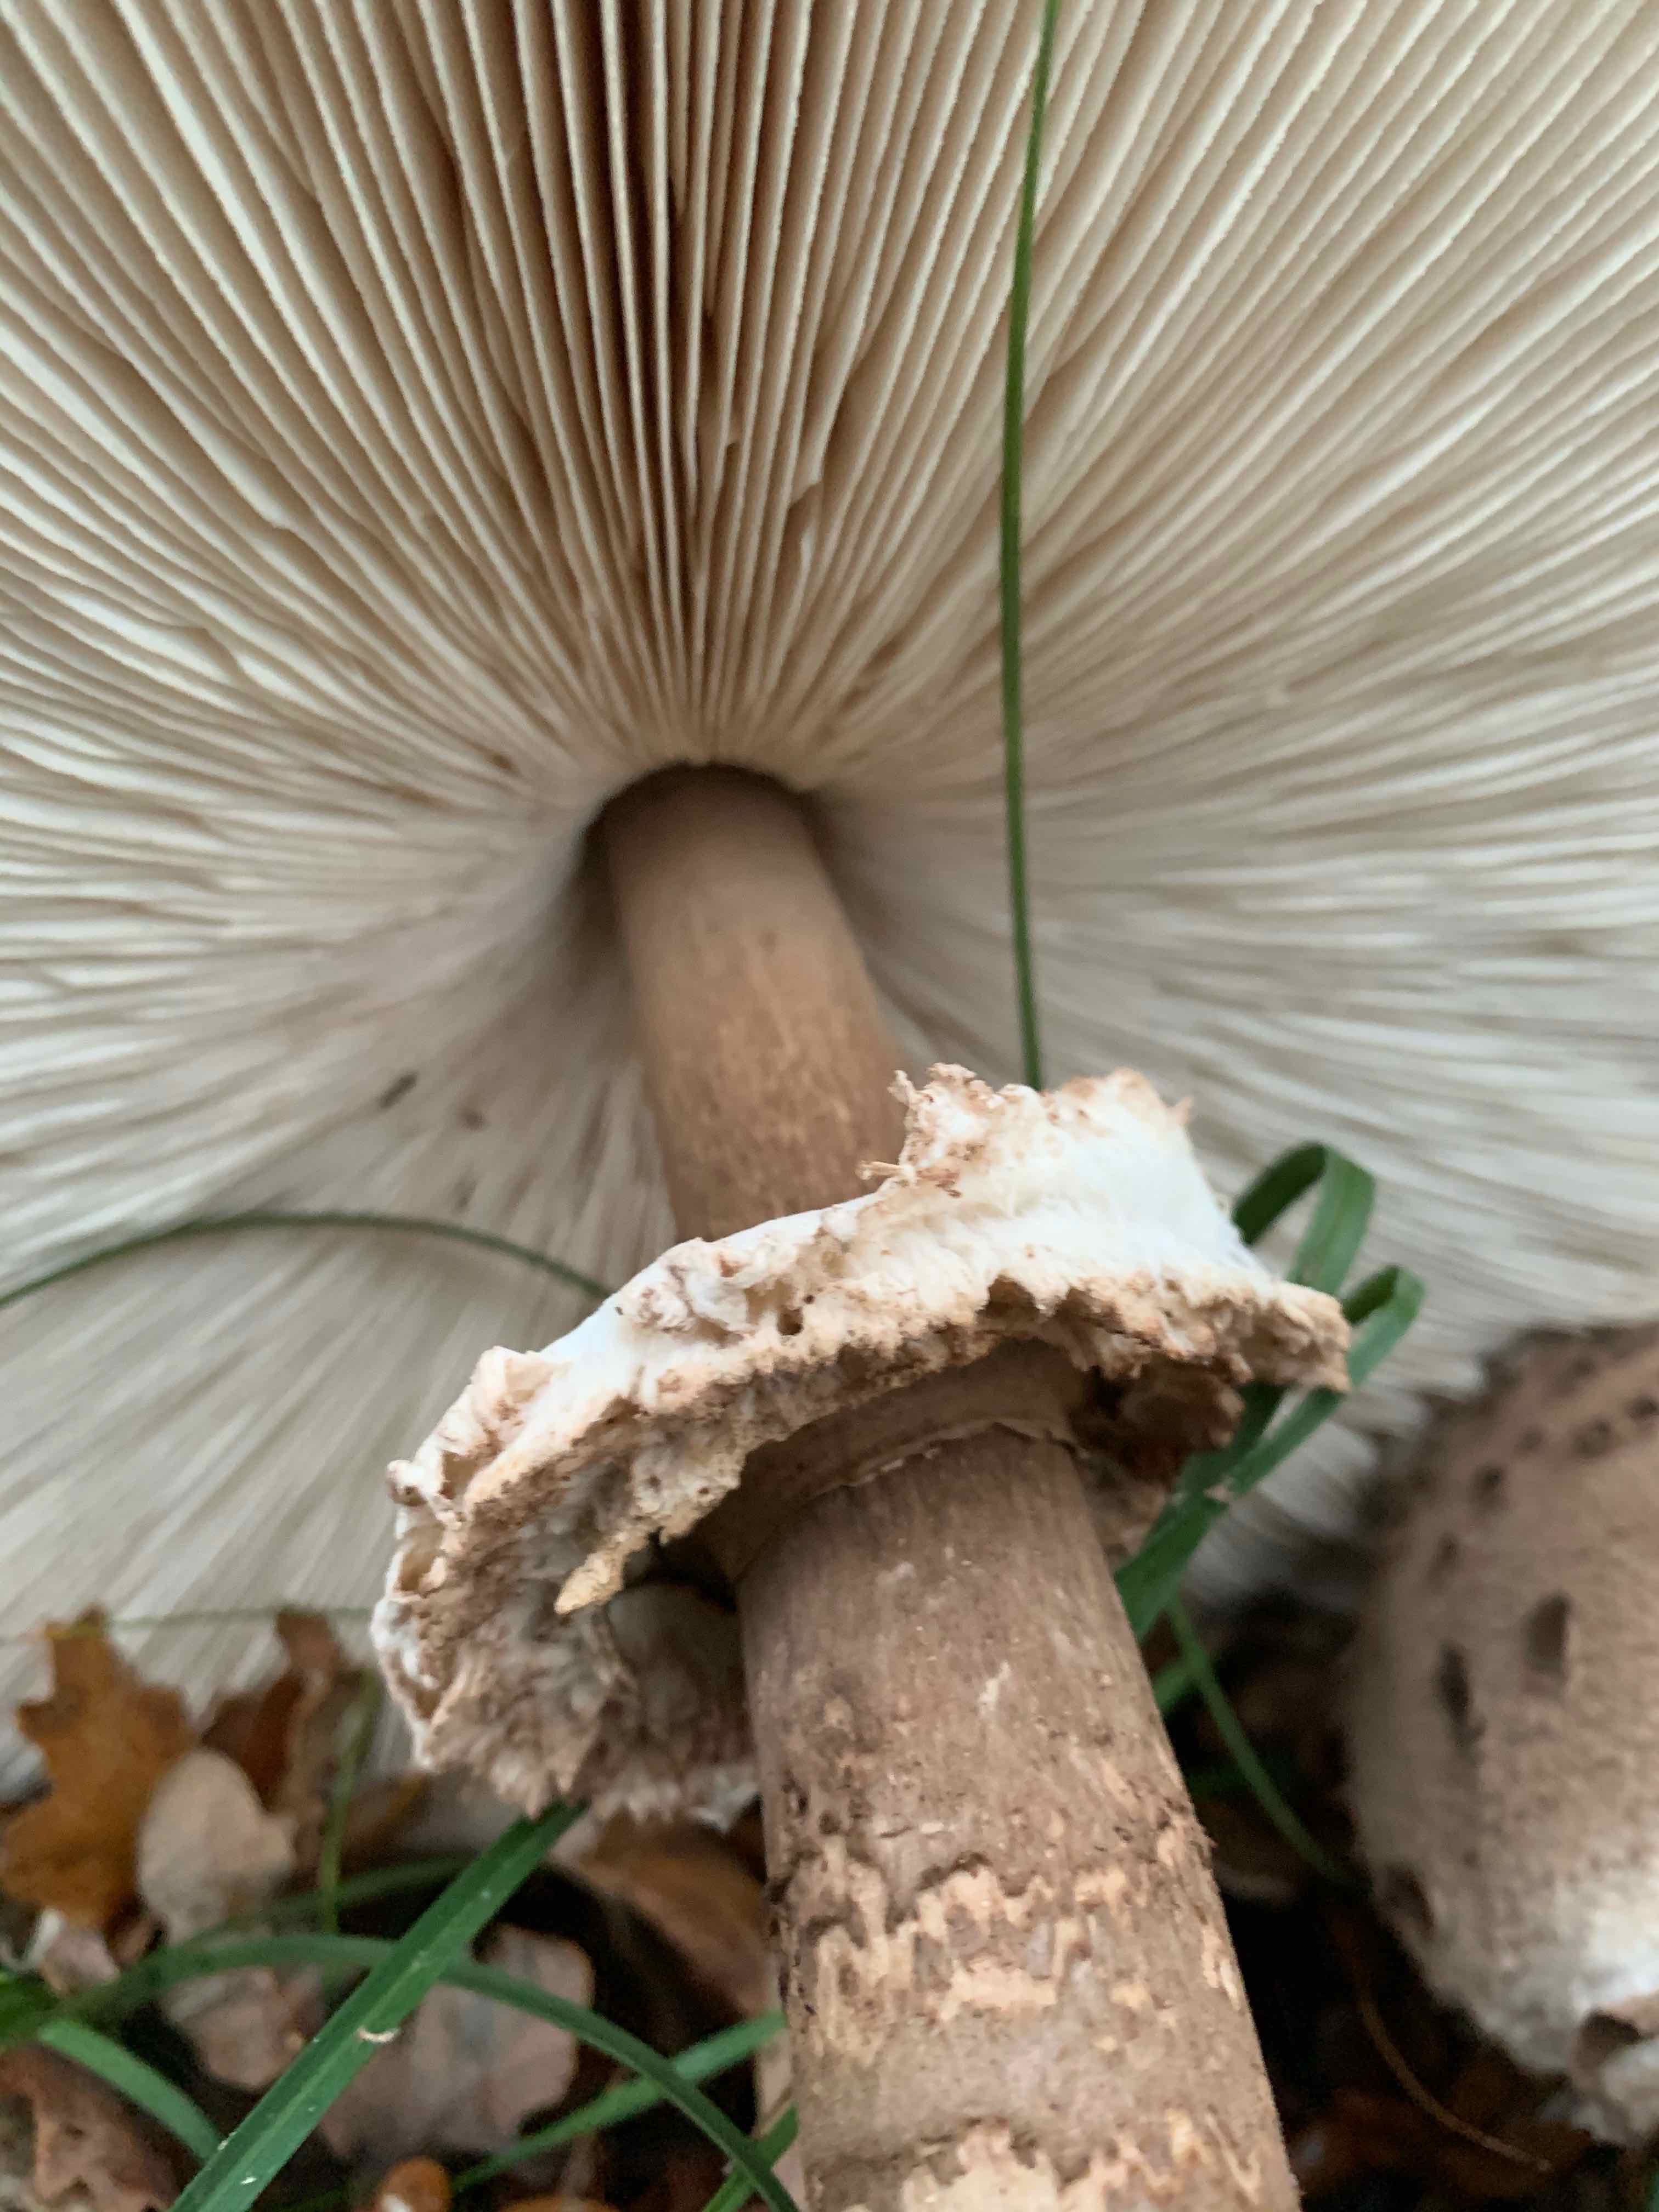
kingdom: Fungi
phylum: Basidiomycota
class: Agaricomycetes
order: Agaricales
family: Agaricaceae
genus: Macrolepiota
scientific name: Macrolepiota procera
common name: stor kæmpeparasolhat
